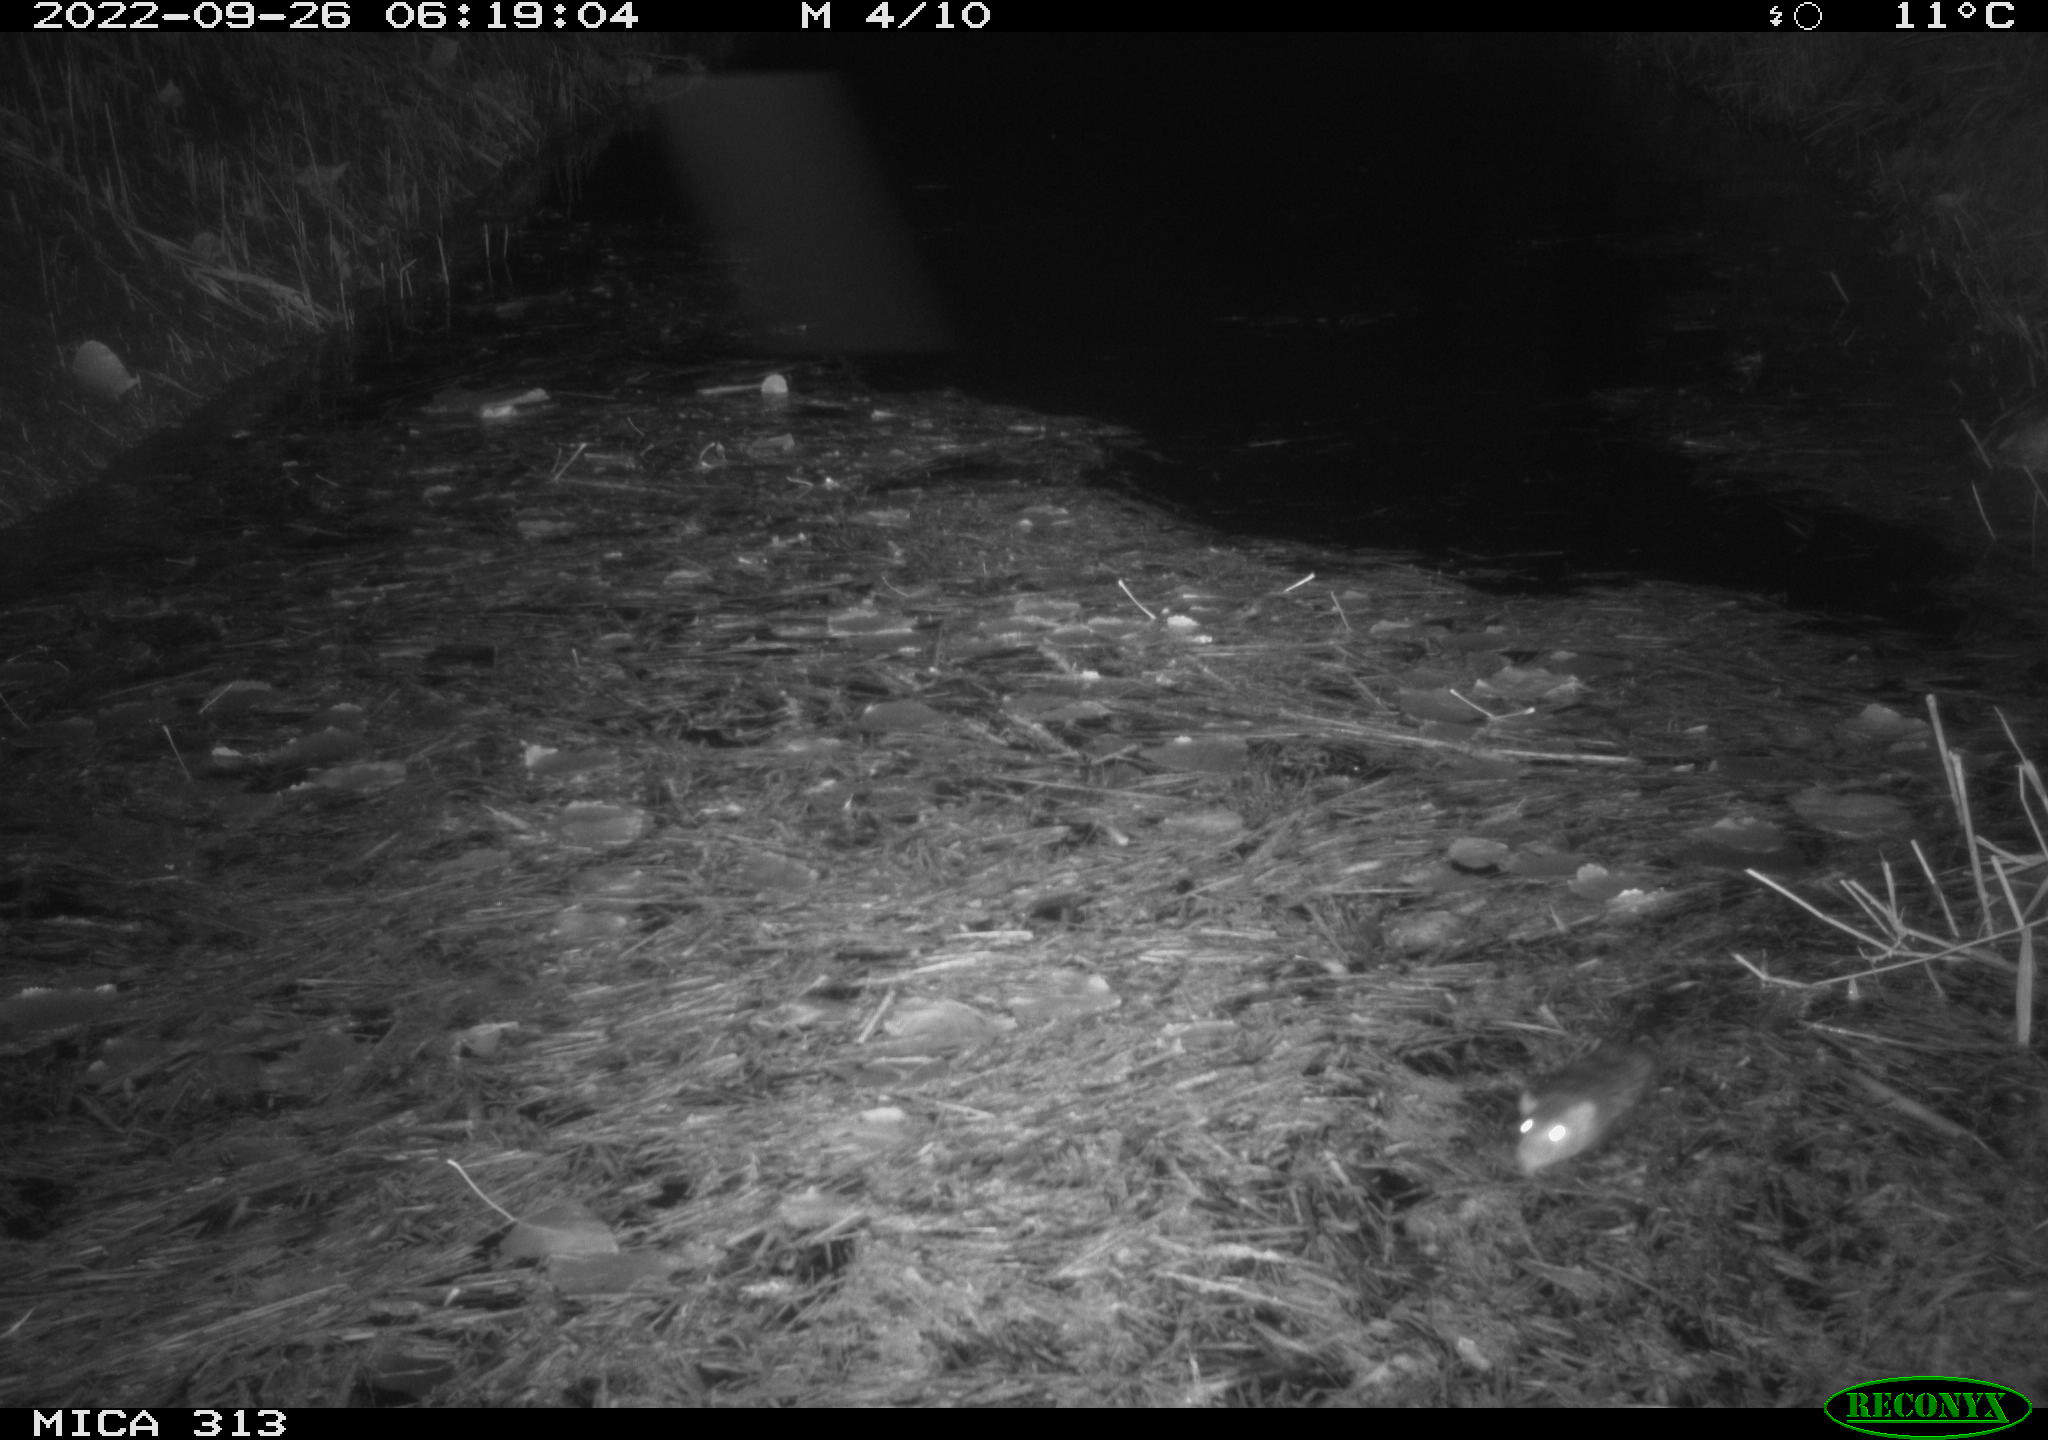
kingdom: Animalia
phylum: Chordata
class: Mammalia
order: Rodentia
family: Muridae
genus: Rattus
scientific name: Rattus norvegicus
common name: Brown rat
